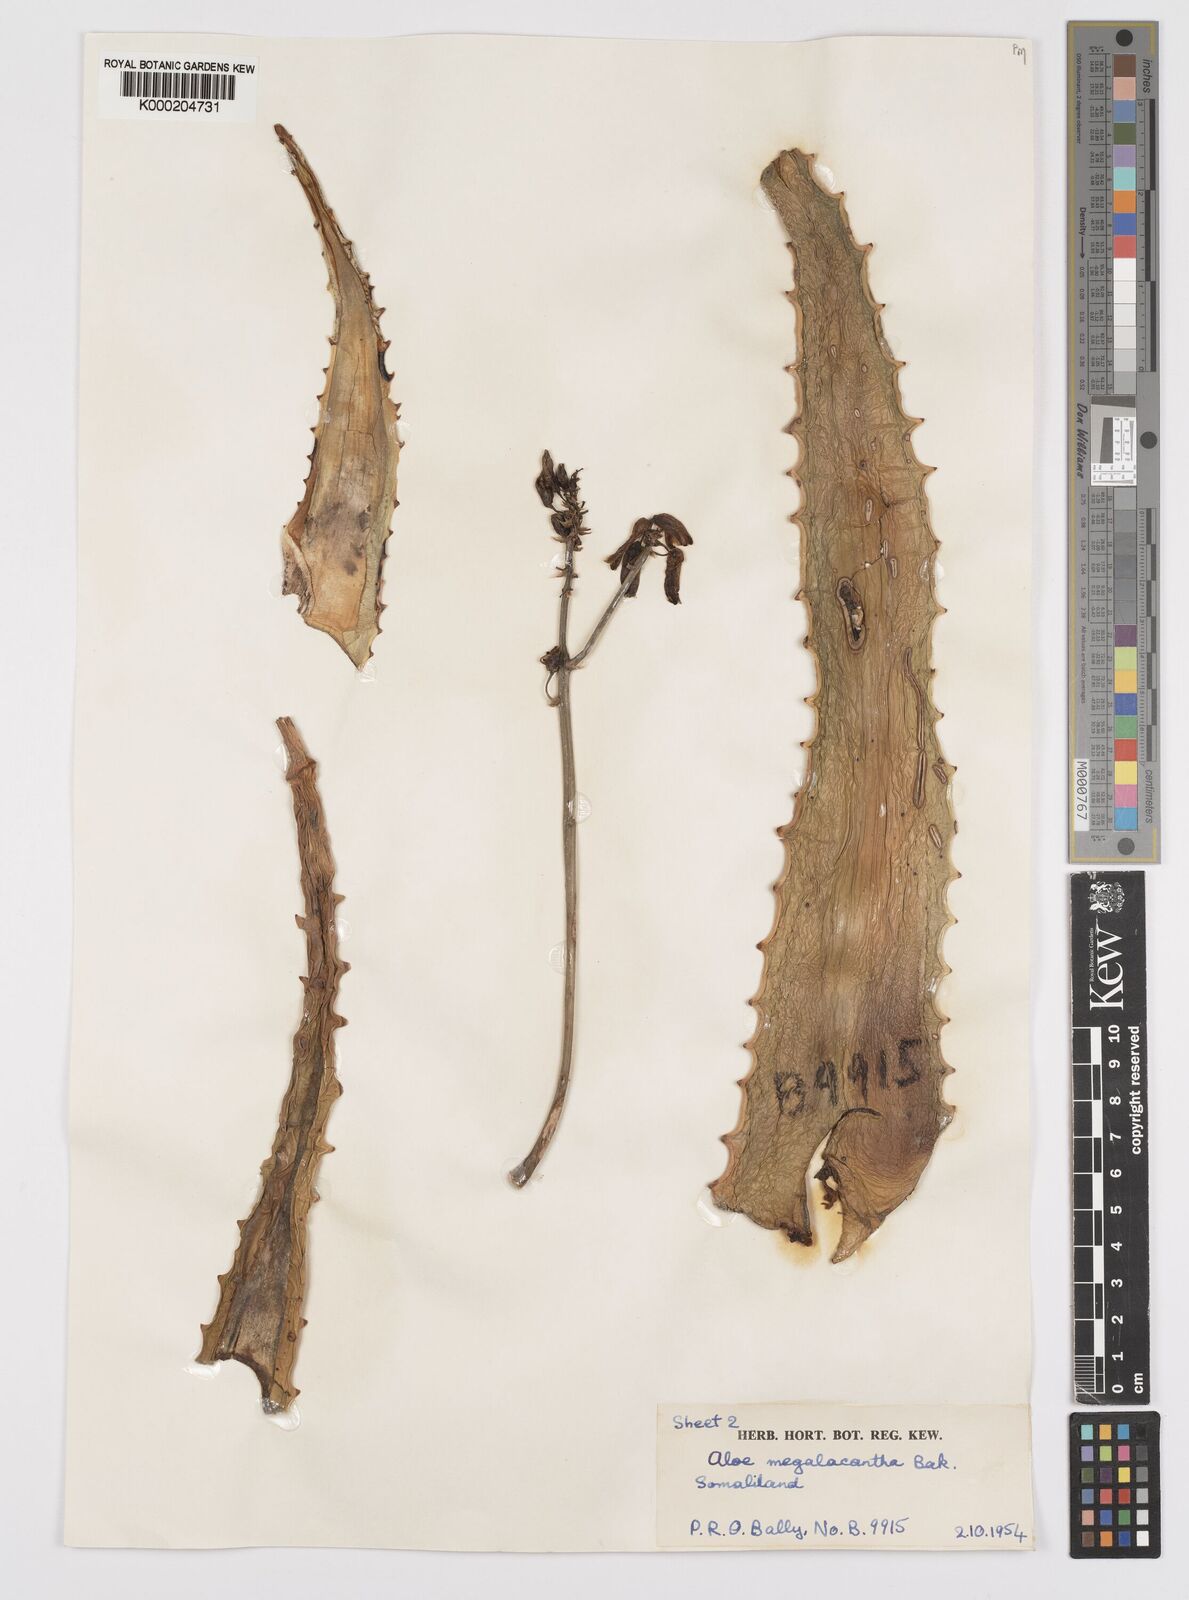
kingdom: Plantae
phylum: Tracheophyta
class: Liliopsida
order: Asparagales
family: Asphodelaceae
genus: Aloe
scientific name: Aloe megalacantha
